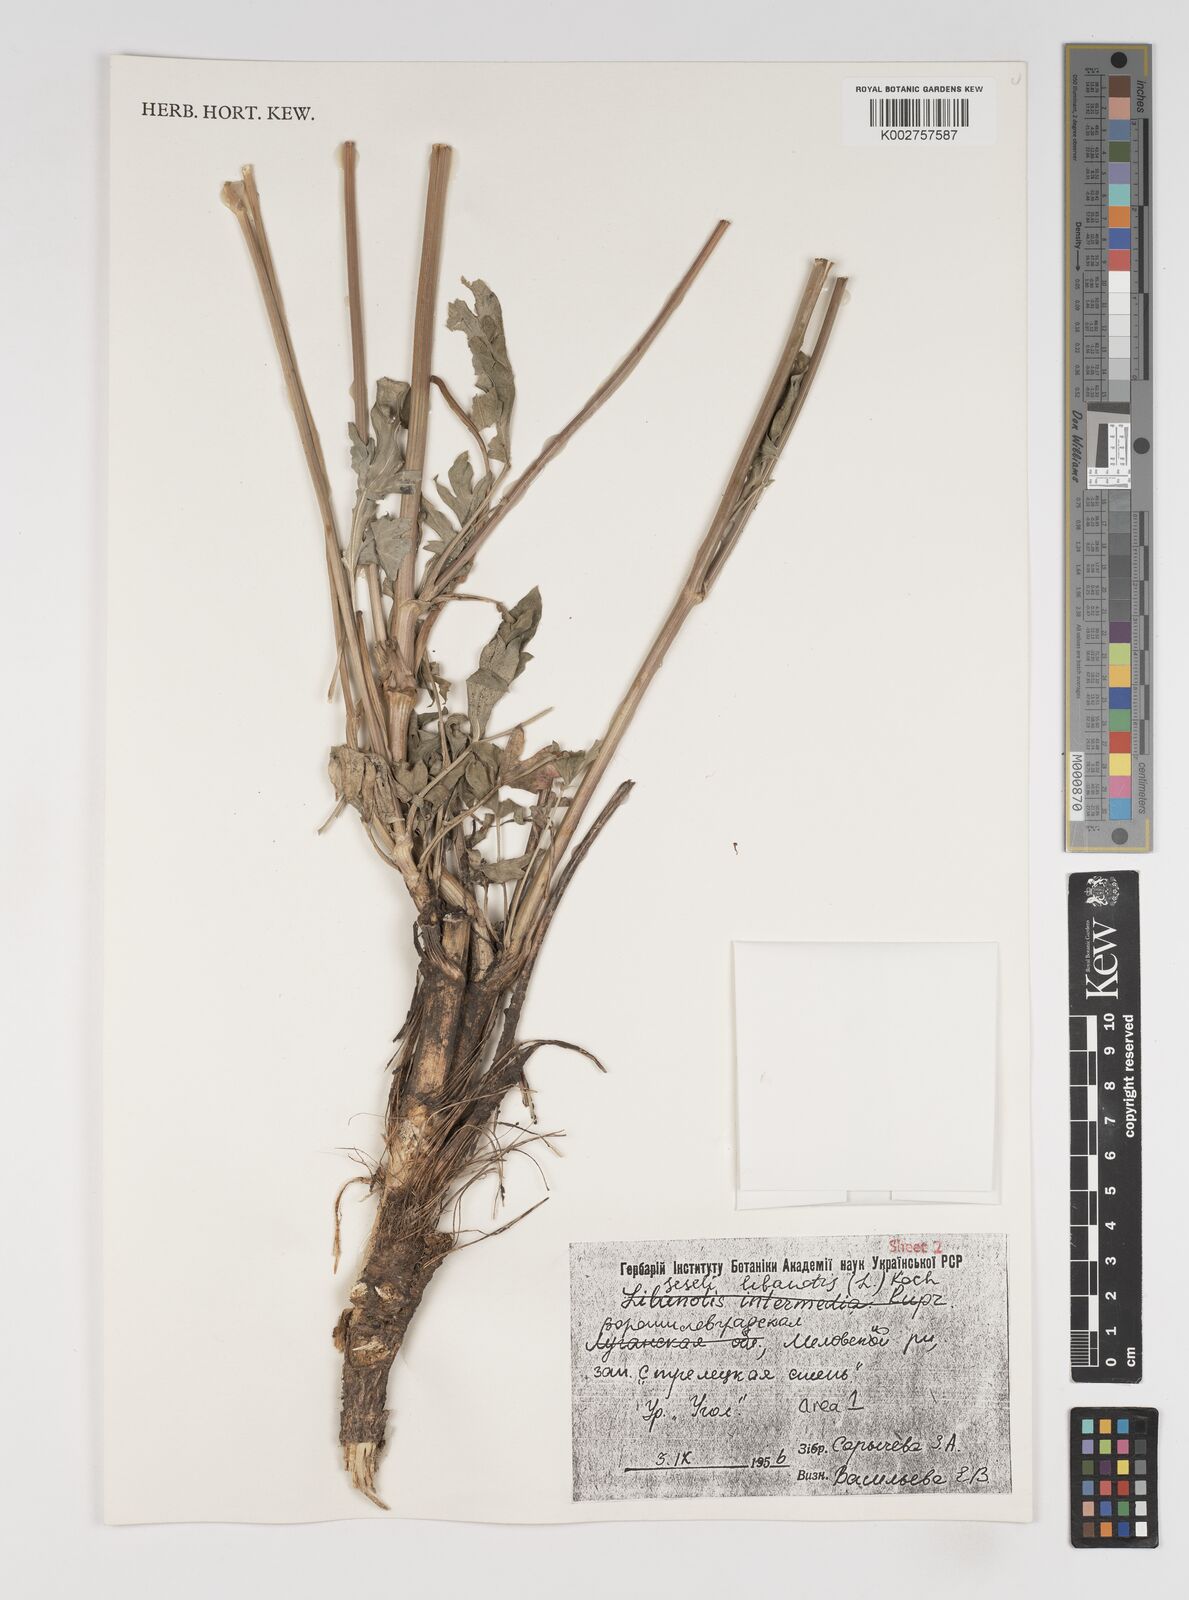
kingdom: Plantae
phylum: Tracheophyta
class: Magnoliopsida
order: Apiales
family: Apiaceae
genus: Seseli
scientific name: Seseli libanotis
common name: Mooncarrot
